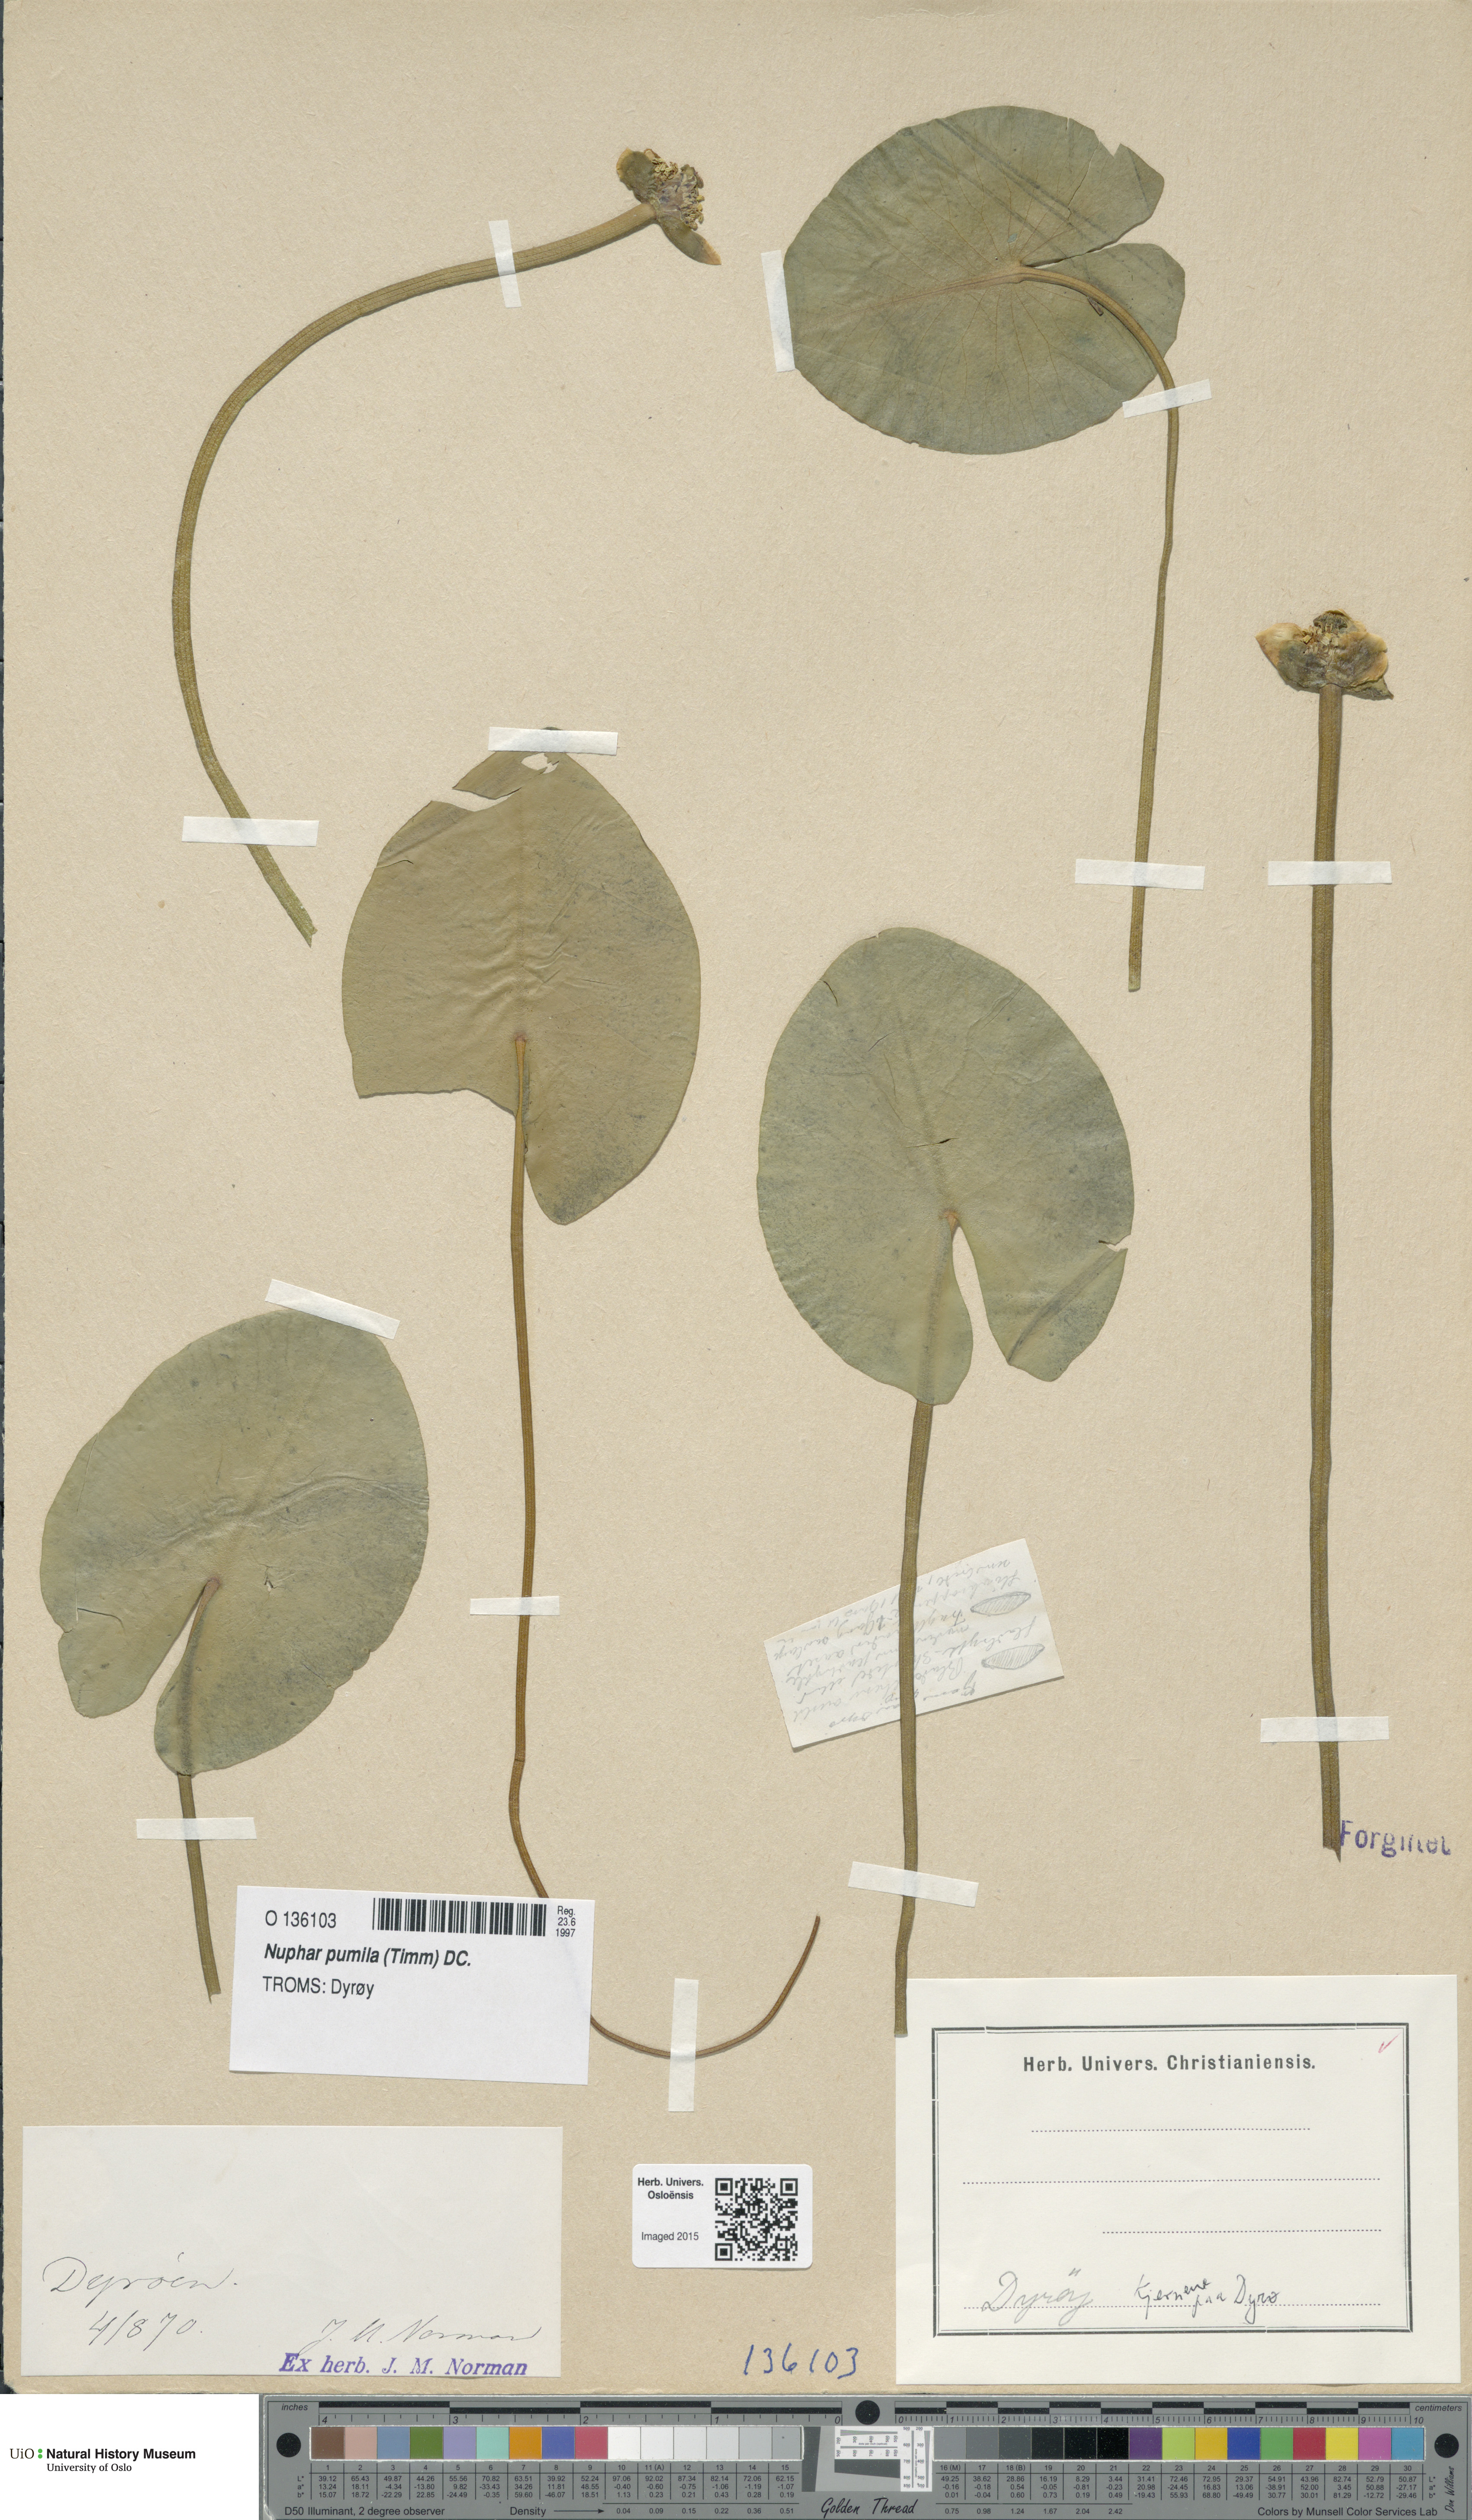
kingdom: Plantae
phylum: Tracheophyta
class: Magnoliopsida
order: Nymphaeales
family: Nymphaeaceae
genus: Nuphar
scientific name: Nuphar pumila
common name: Least water-lily
